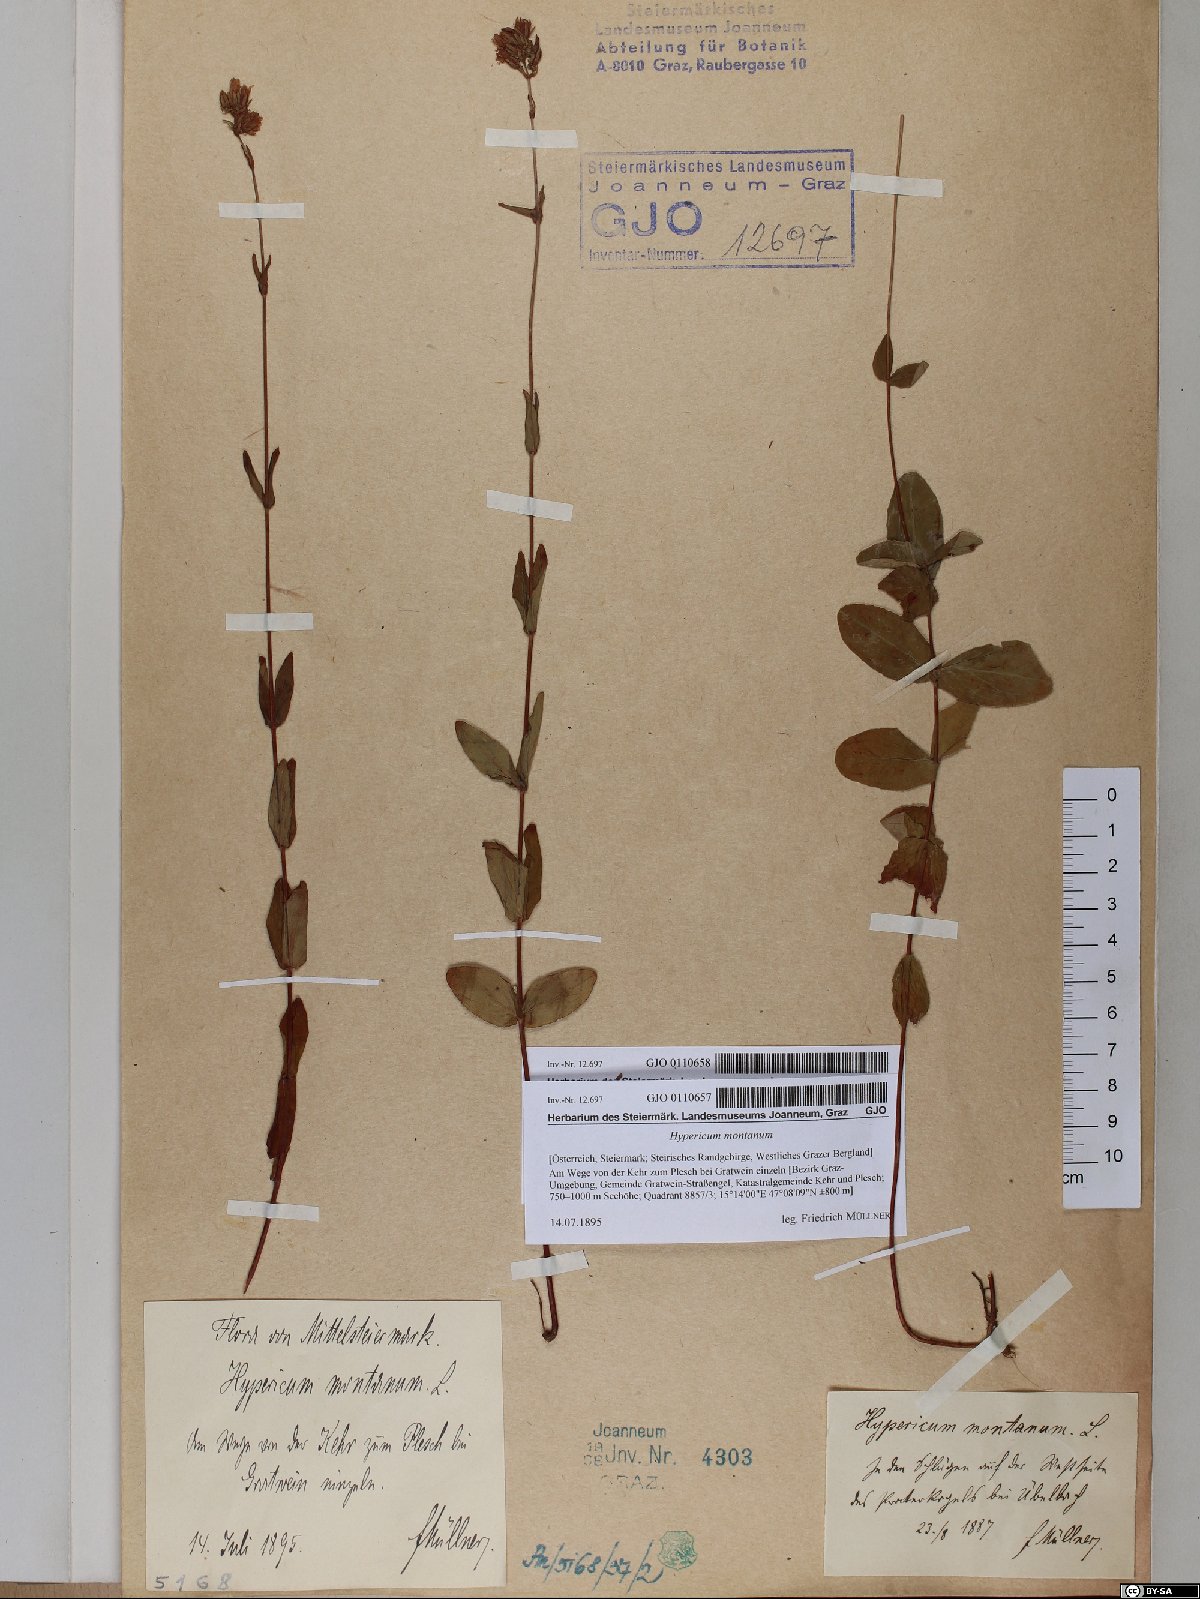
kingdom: Plantae
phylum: Tracheophyta
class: Magnoliopsida
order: Malpighiales
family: Hypericaceae
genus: Hypericum
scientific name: Hypericum montanum
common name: Pale st. john's-wort
